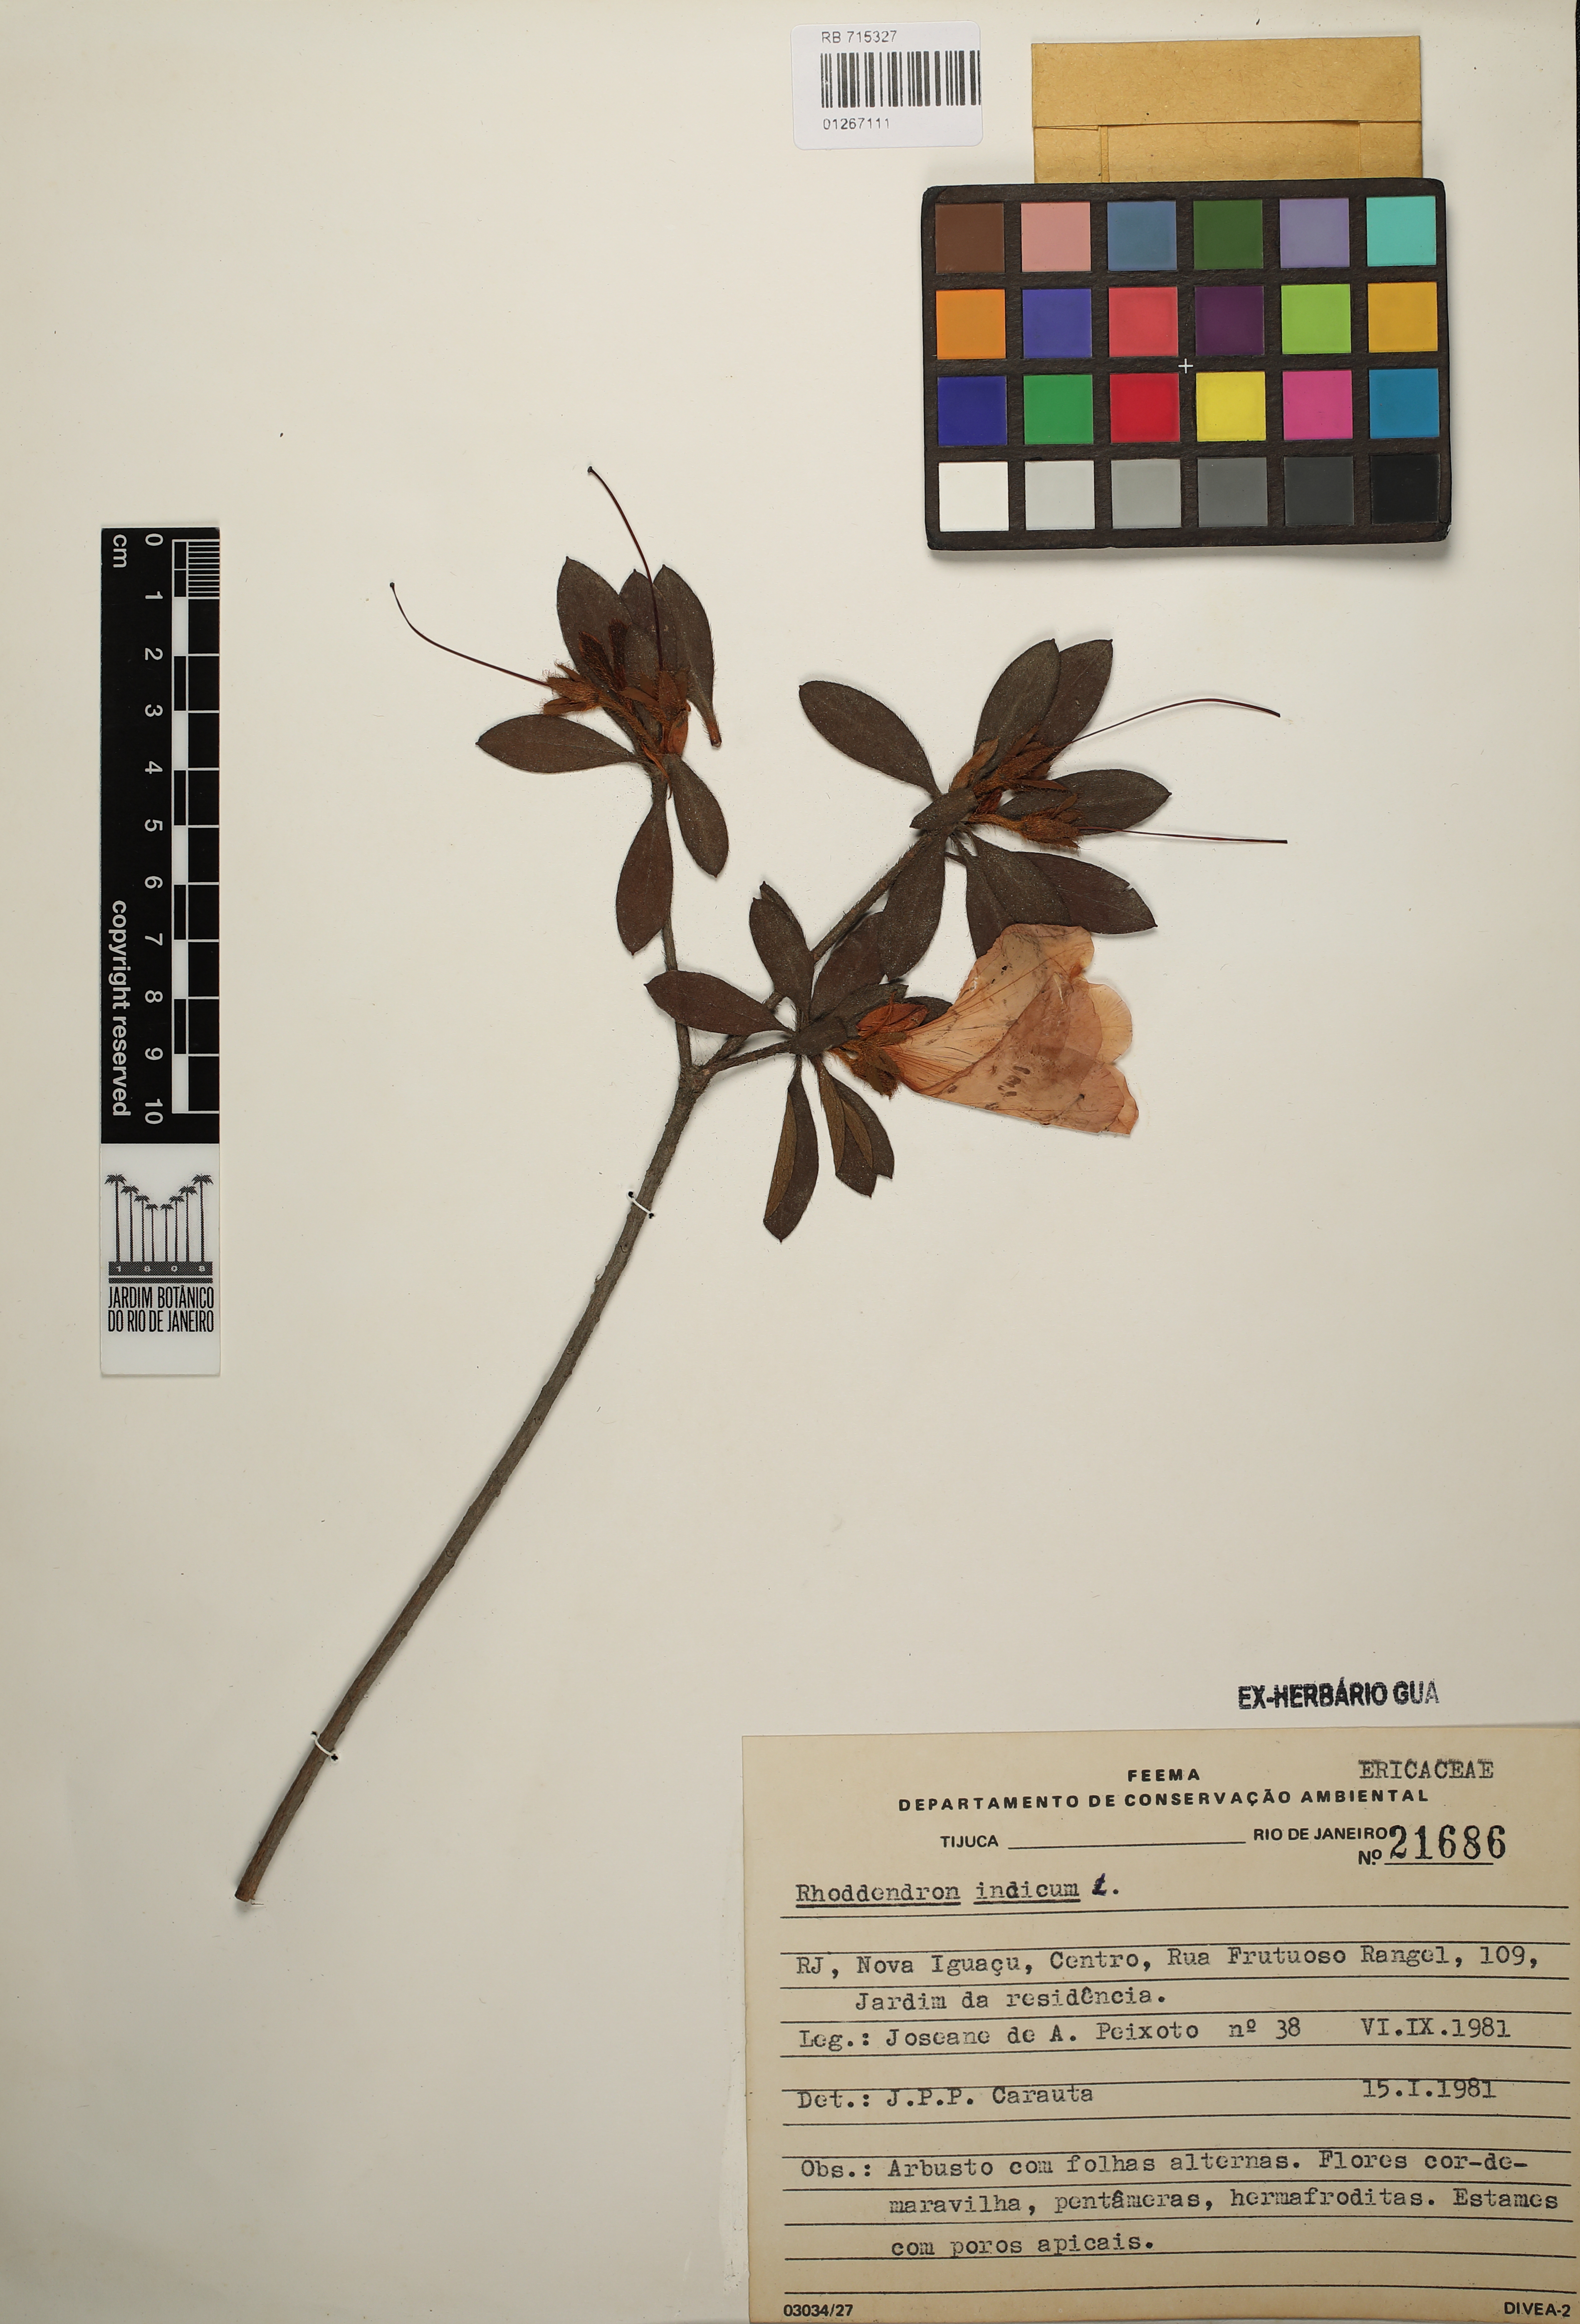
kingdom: Plantae
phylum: Tracheophyta
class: Magnoliopsida
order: Ericales
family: Ericaceae
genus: Rhododendron
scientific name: Rhododendron indicum
